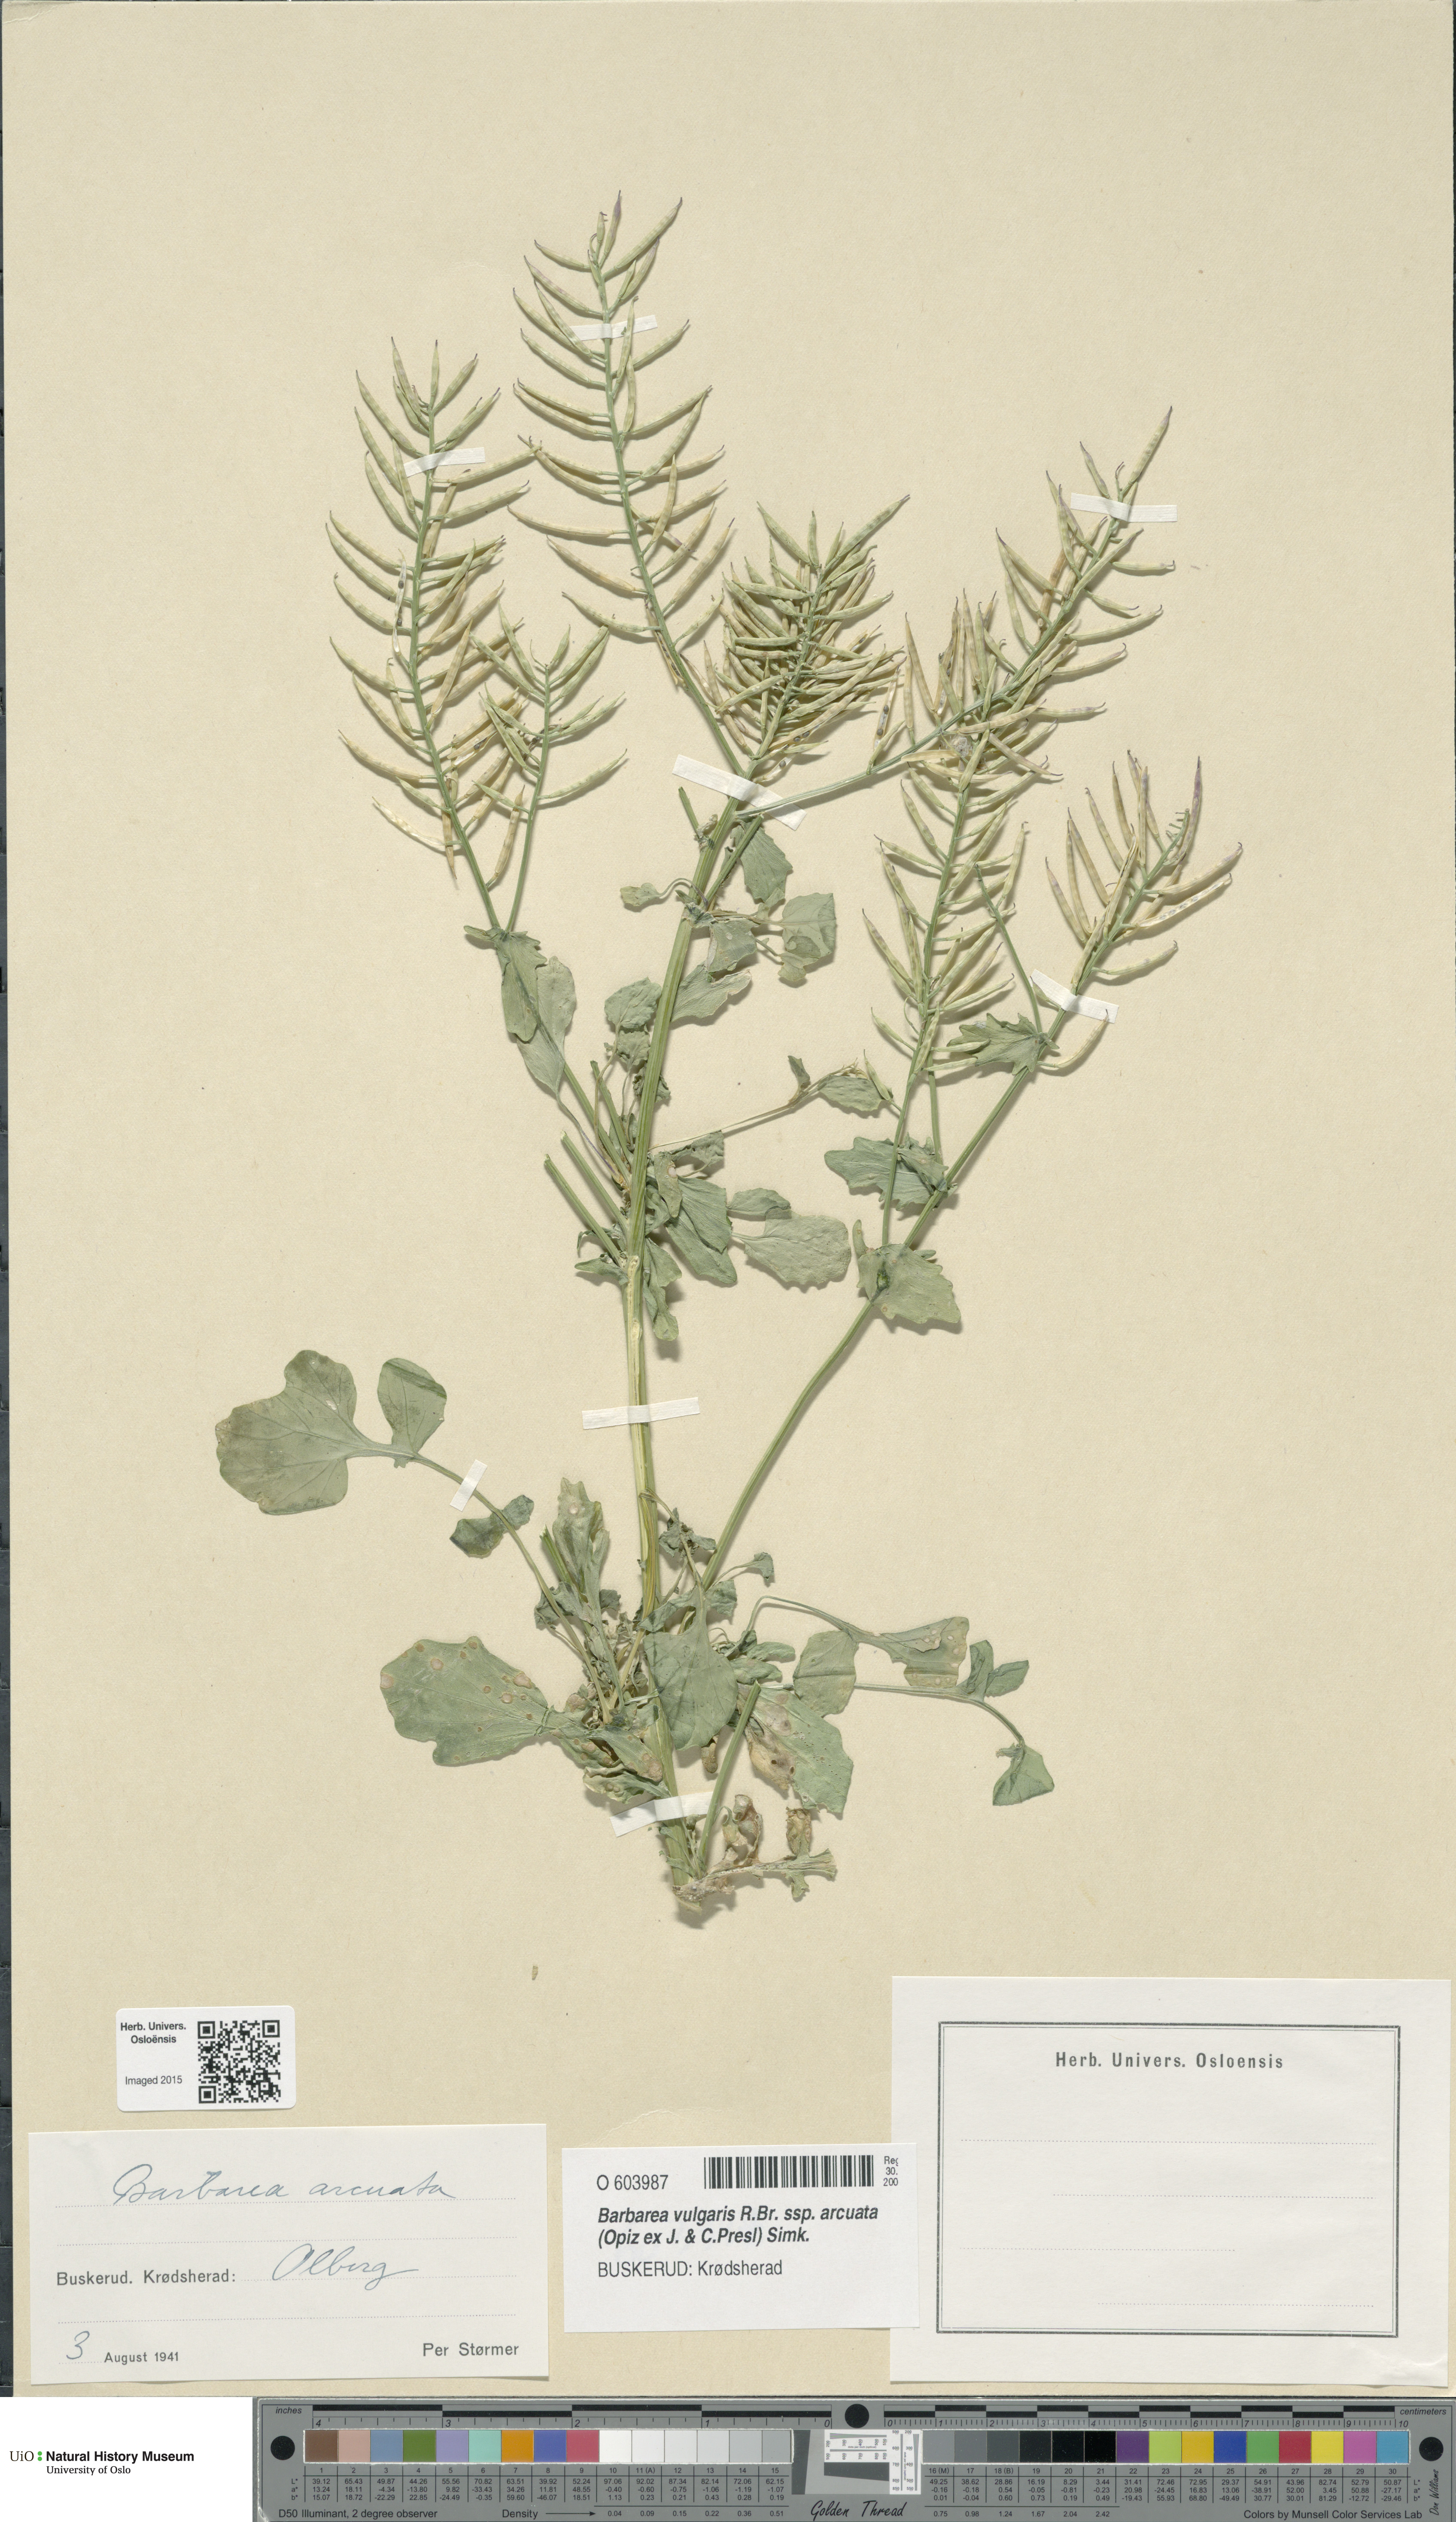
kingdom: Plantae
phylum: Tracheophyta
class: Magnoliopsida
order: Brassicales
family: Brassicaceae
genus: Barbarea
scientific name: Barbarea vulgaris
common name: Cressy-greens
